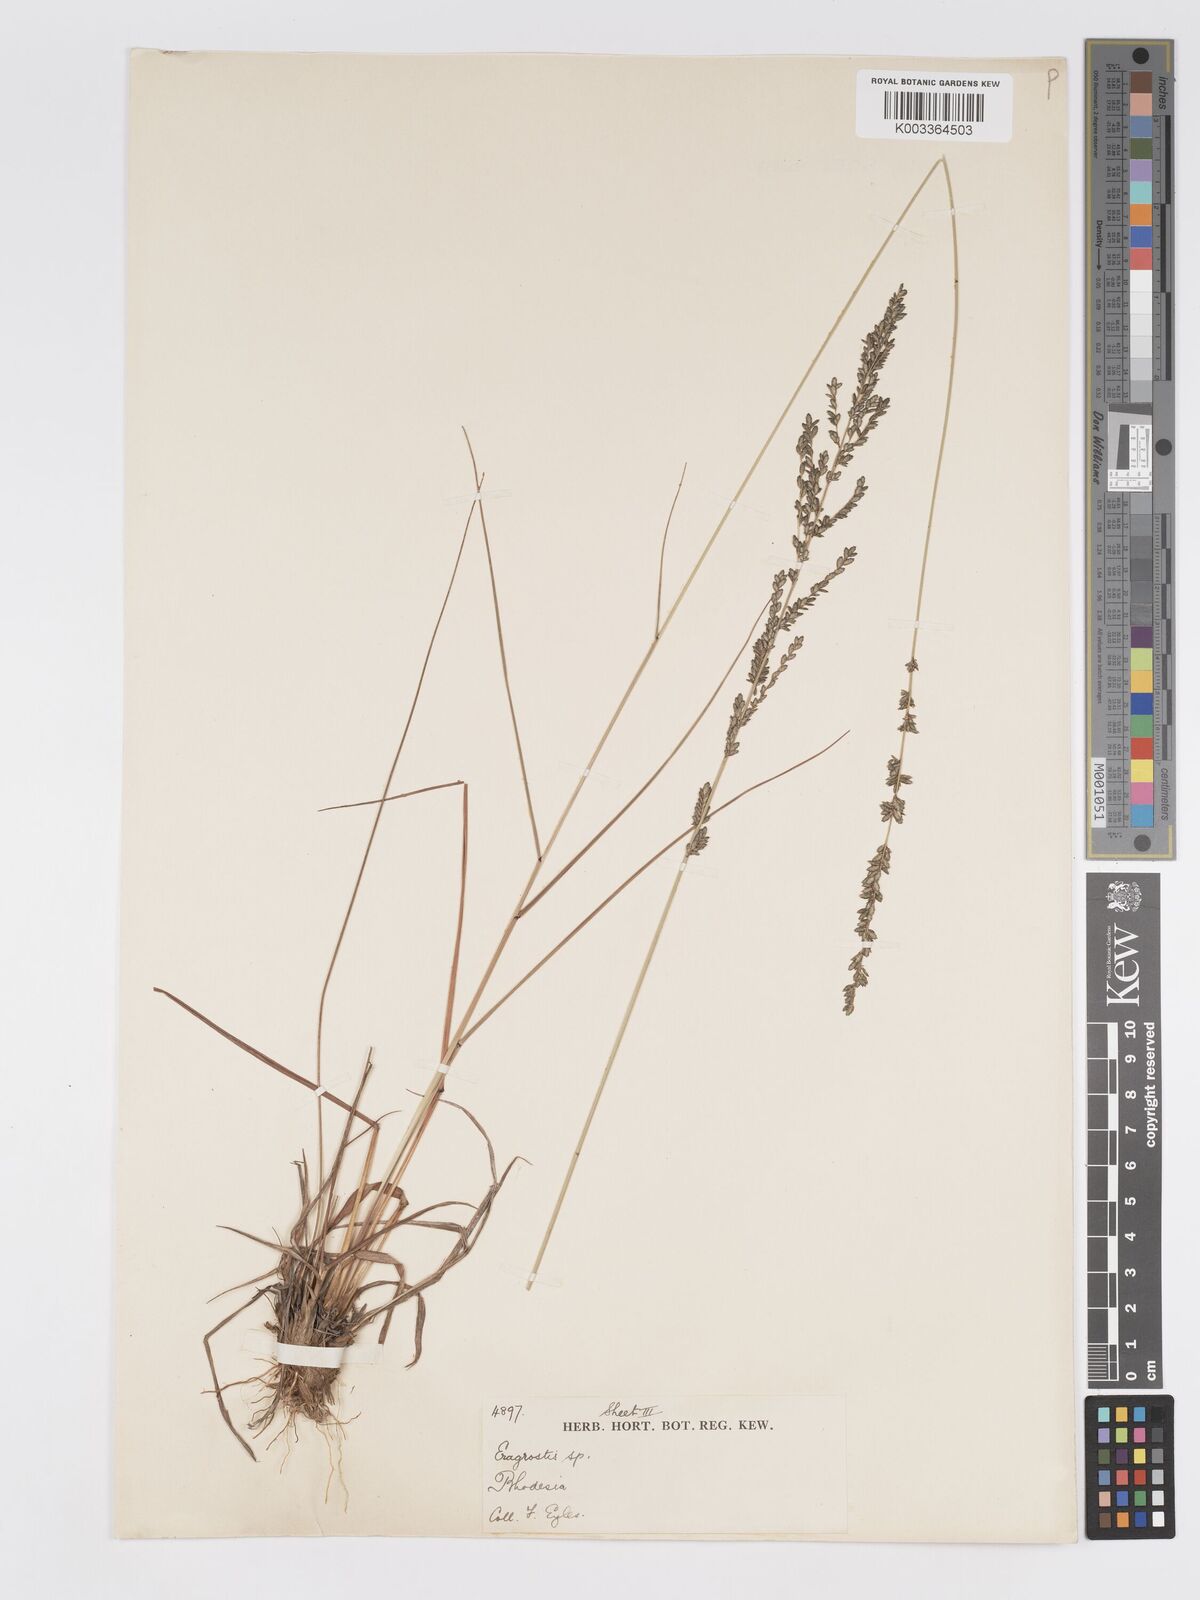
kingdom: Plantae
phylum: Tracheophyta
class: Liliopsida
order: Poales
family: Poaceae
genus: Eragrostis
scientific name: Eragrostis sclerantha
